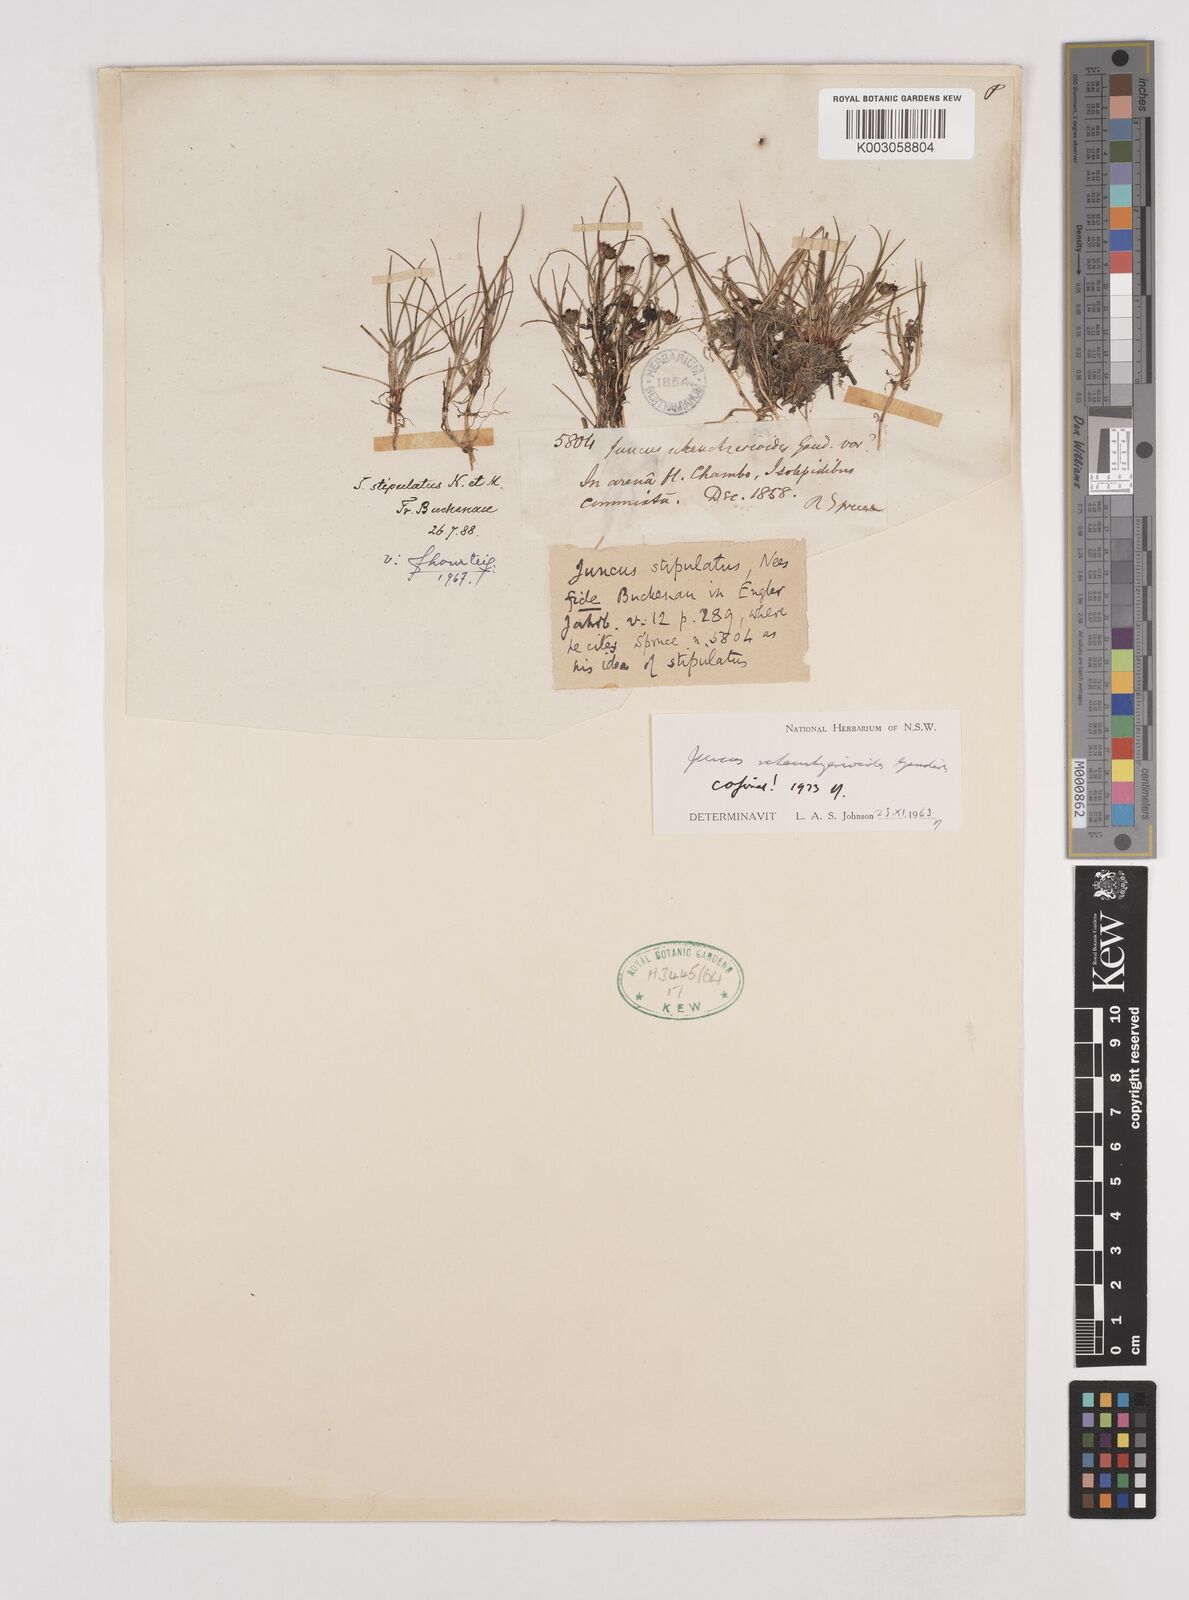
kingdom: Plantae
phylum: Tracheophyta
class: Liliopsida
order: Poales
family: Juncaceae
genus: Juncus
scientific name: Juncus scheuchzerioides
